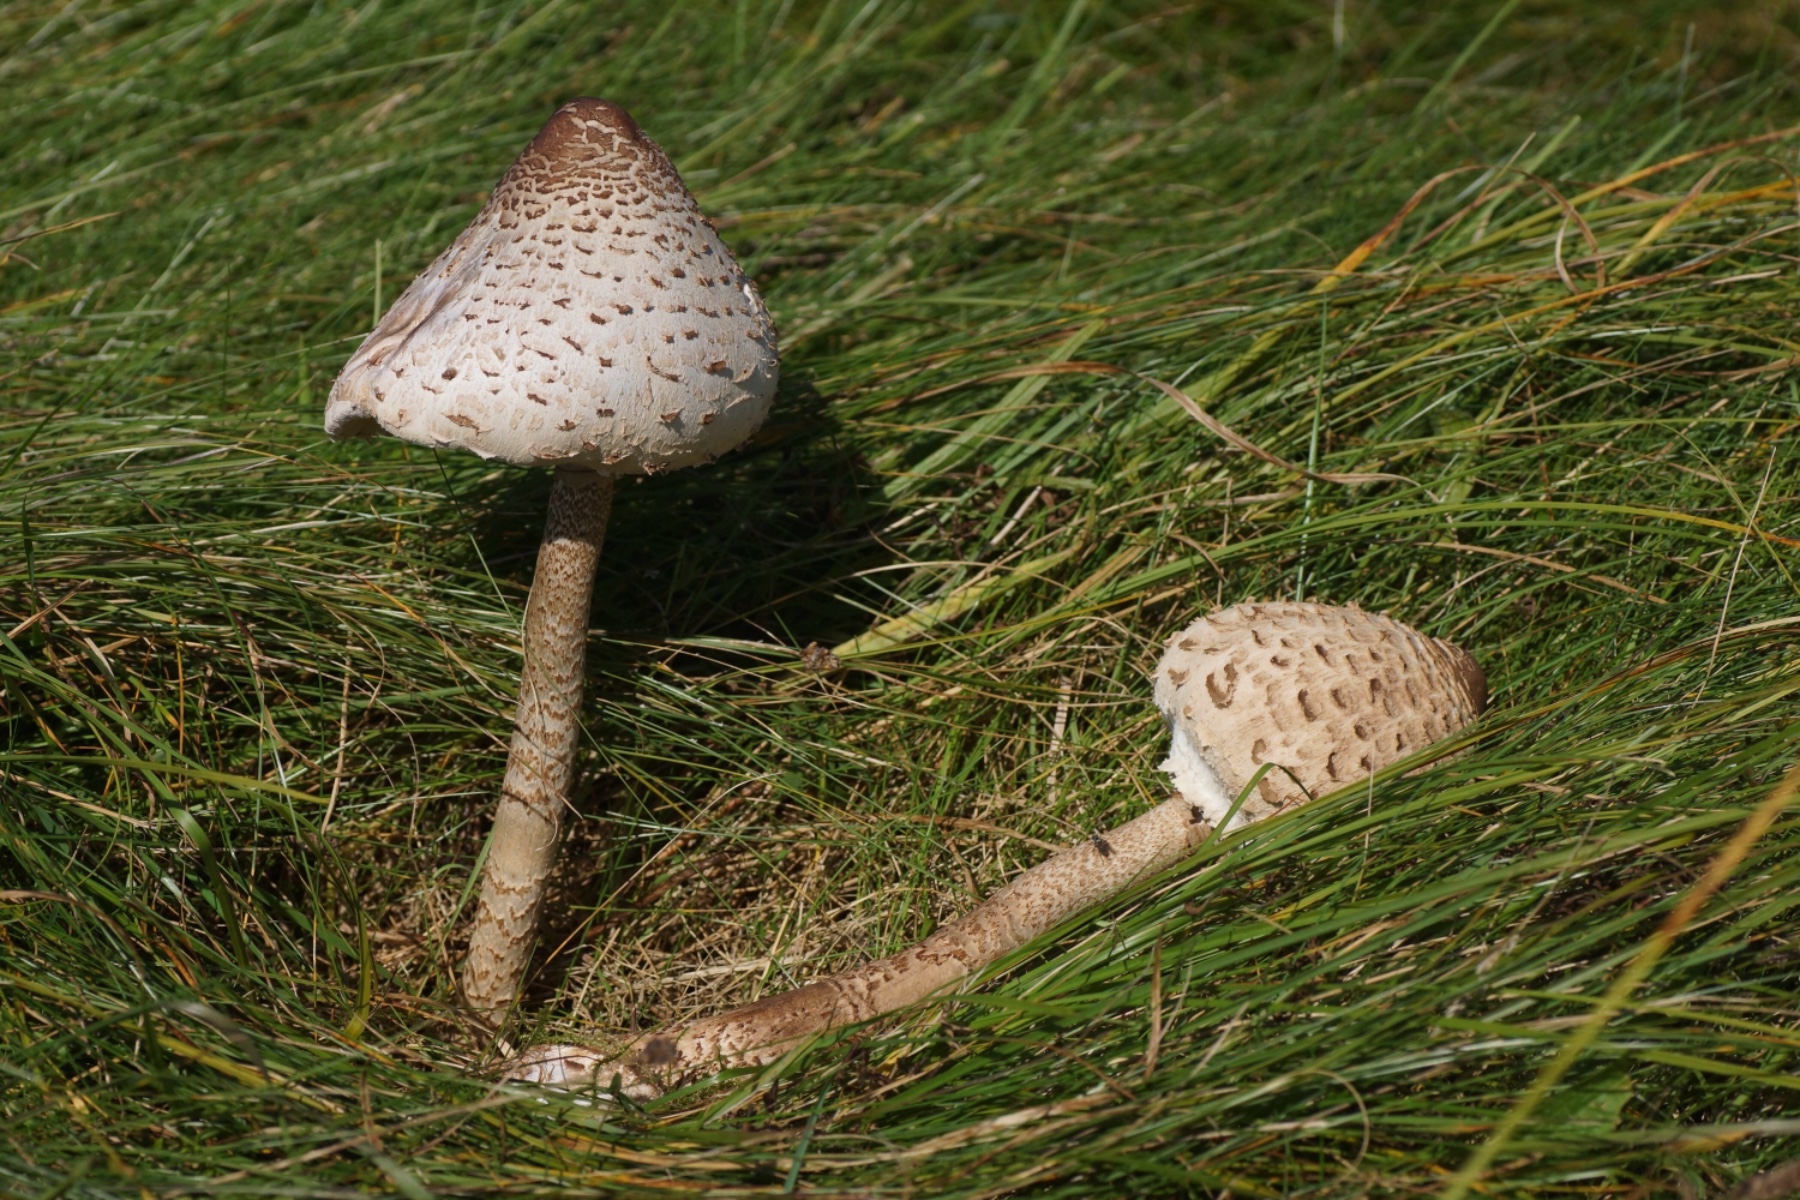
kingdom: Fungi
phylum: Basidiomycota
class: Agaricomycetes
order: Agaricales
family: Agaricaceae
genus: Macrolepiota
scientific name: Macrolepiota procera
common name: stor kæmpeparasolhat
